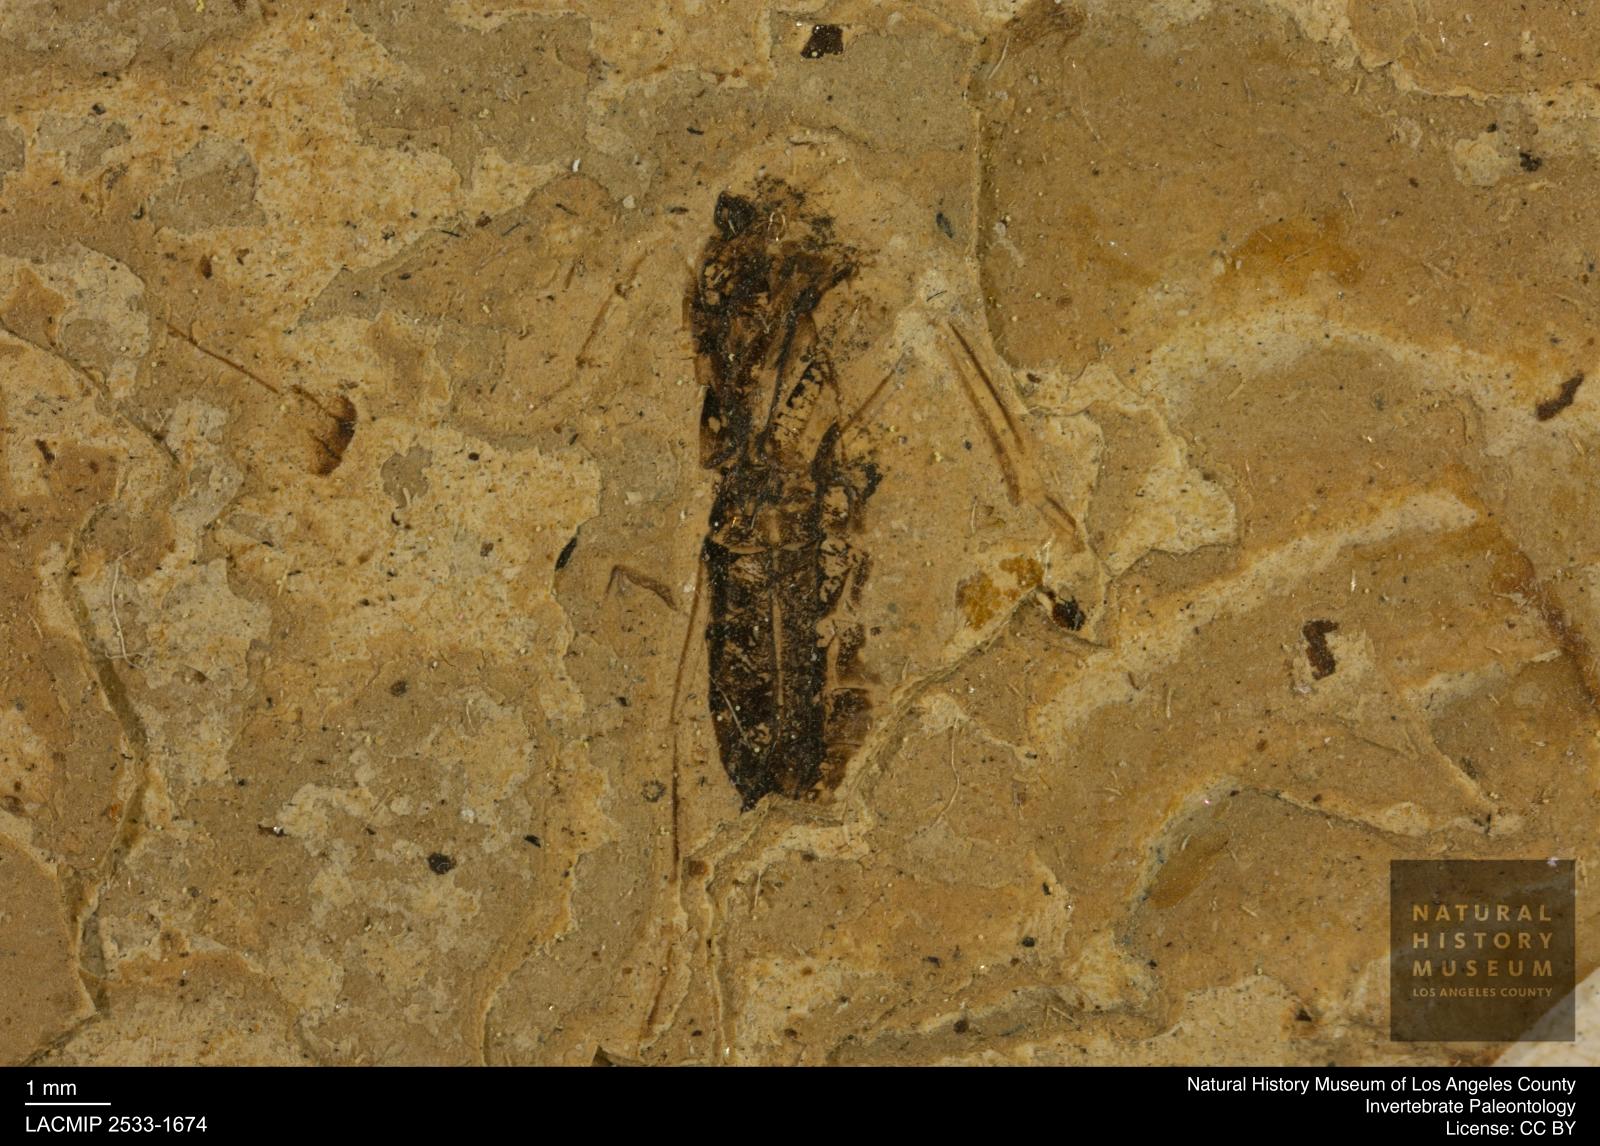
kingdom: Animalia
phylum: Arthropoda
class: Insecta
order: Hemiptera
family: Notonectidae
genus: Notonecta
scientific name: Notonecta
